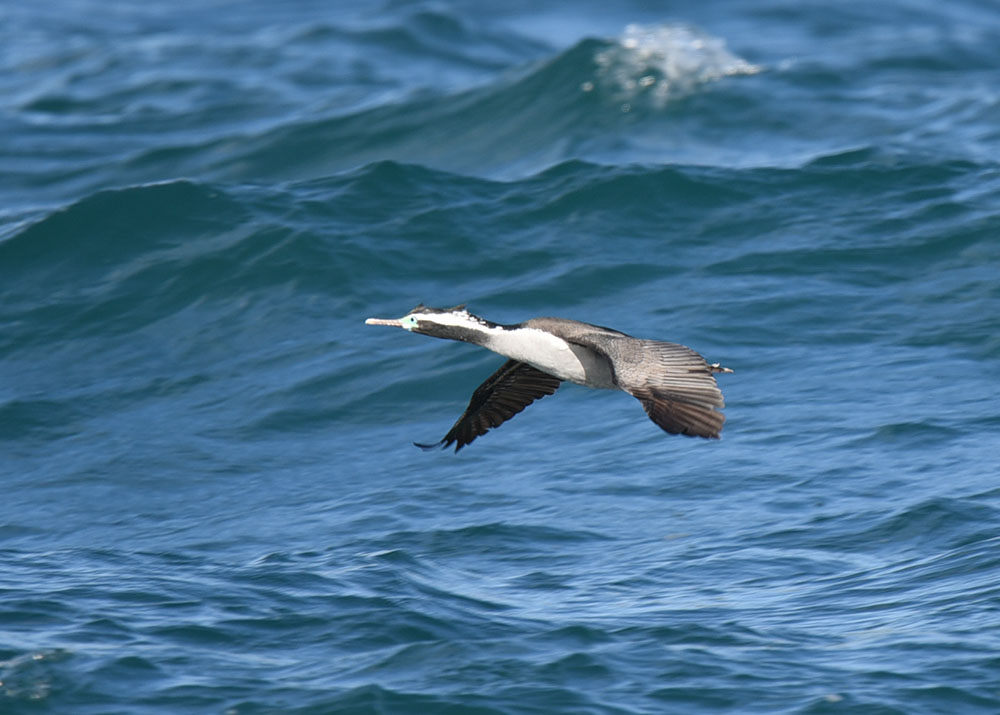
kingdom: Animalia
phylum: Chordata
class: Aves
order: Suliformes
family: Phalacrocoracidae
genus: Phalacrocorax
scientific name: Phalacrocorax punctatus
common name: Spotted shag
